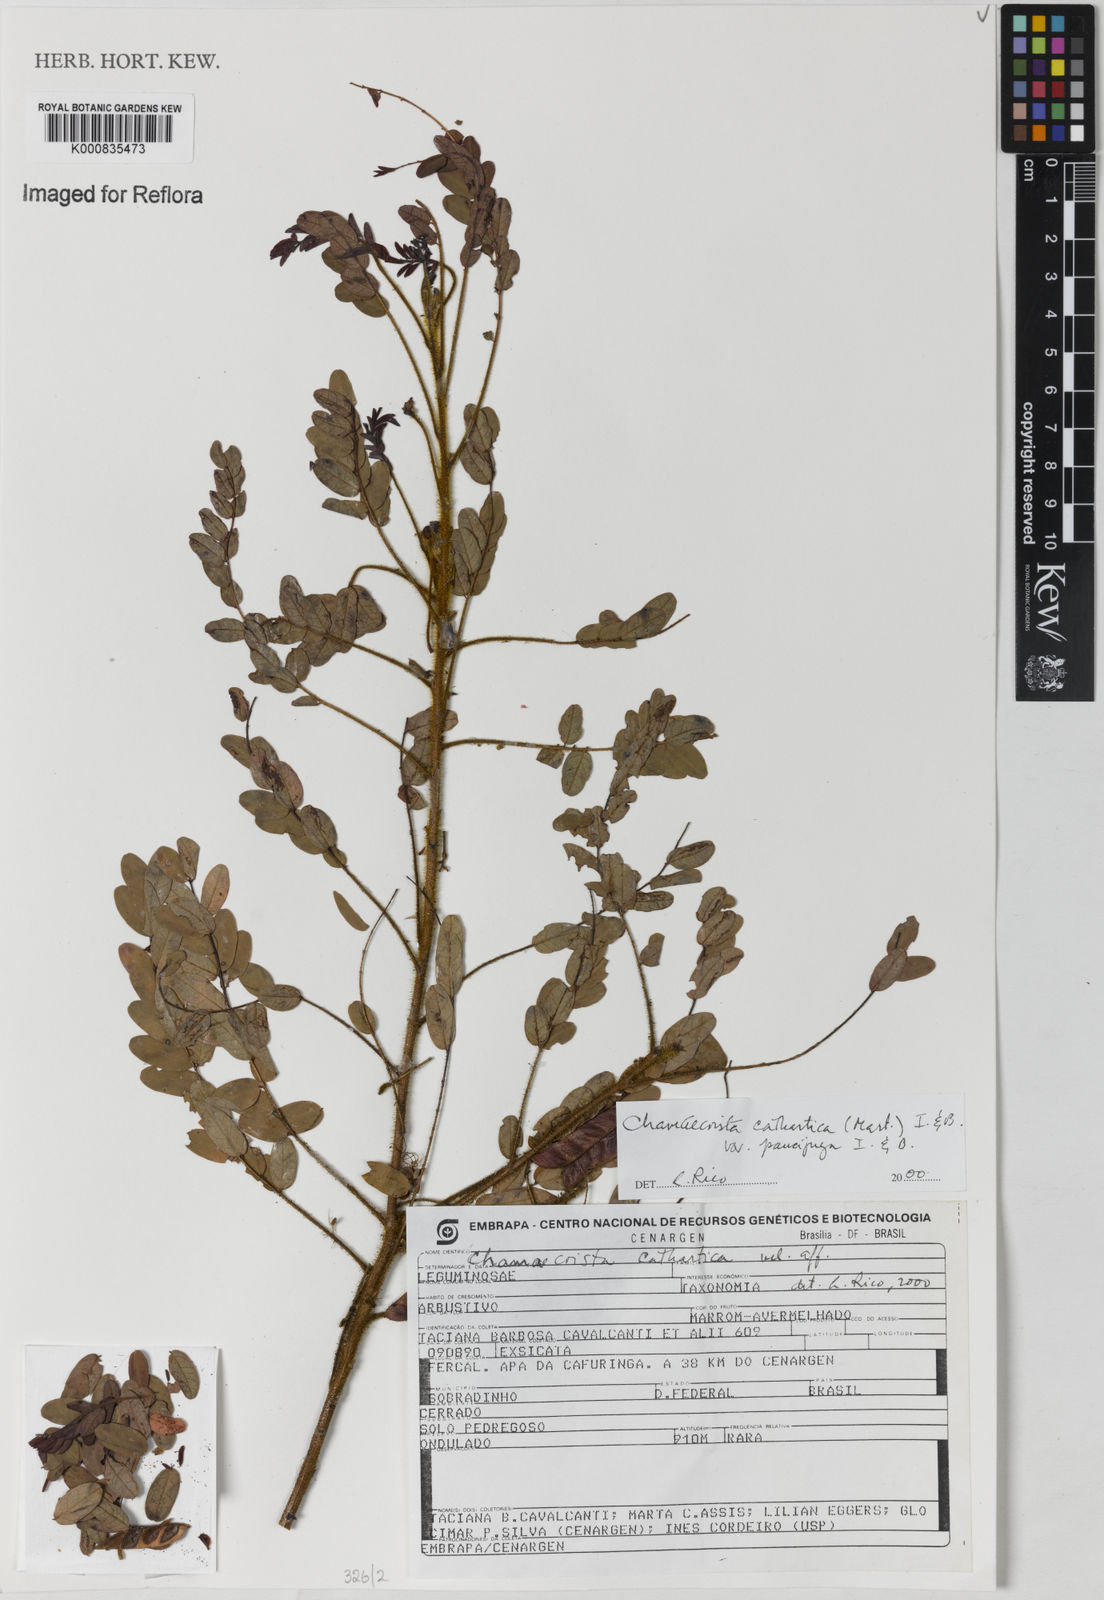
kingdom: Plantae
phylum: Tracheophyta
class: Magnoliopsida
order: Fabales
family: Fabaceae
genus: Chamaecrista
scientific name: Chamaecrista cathartica
